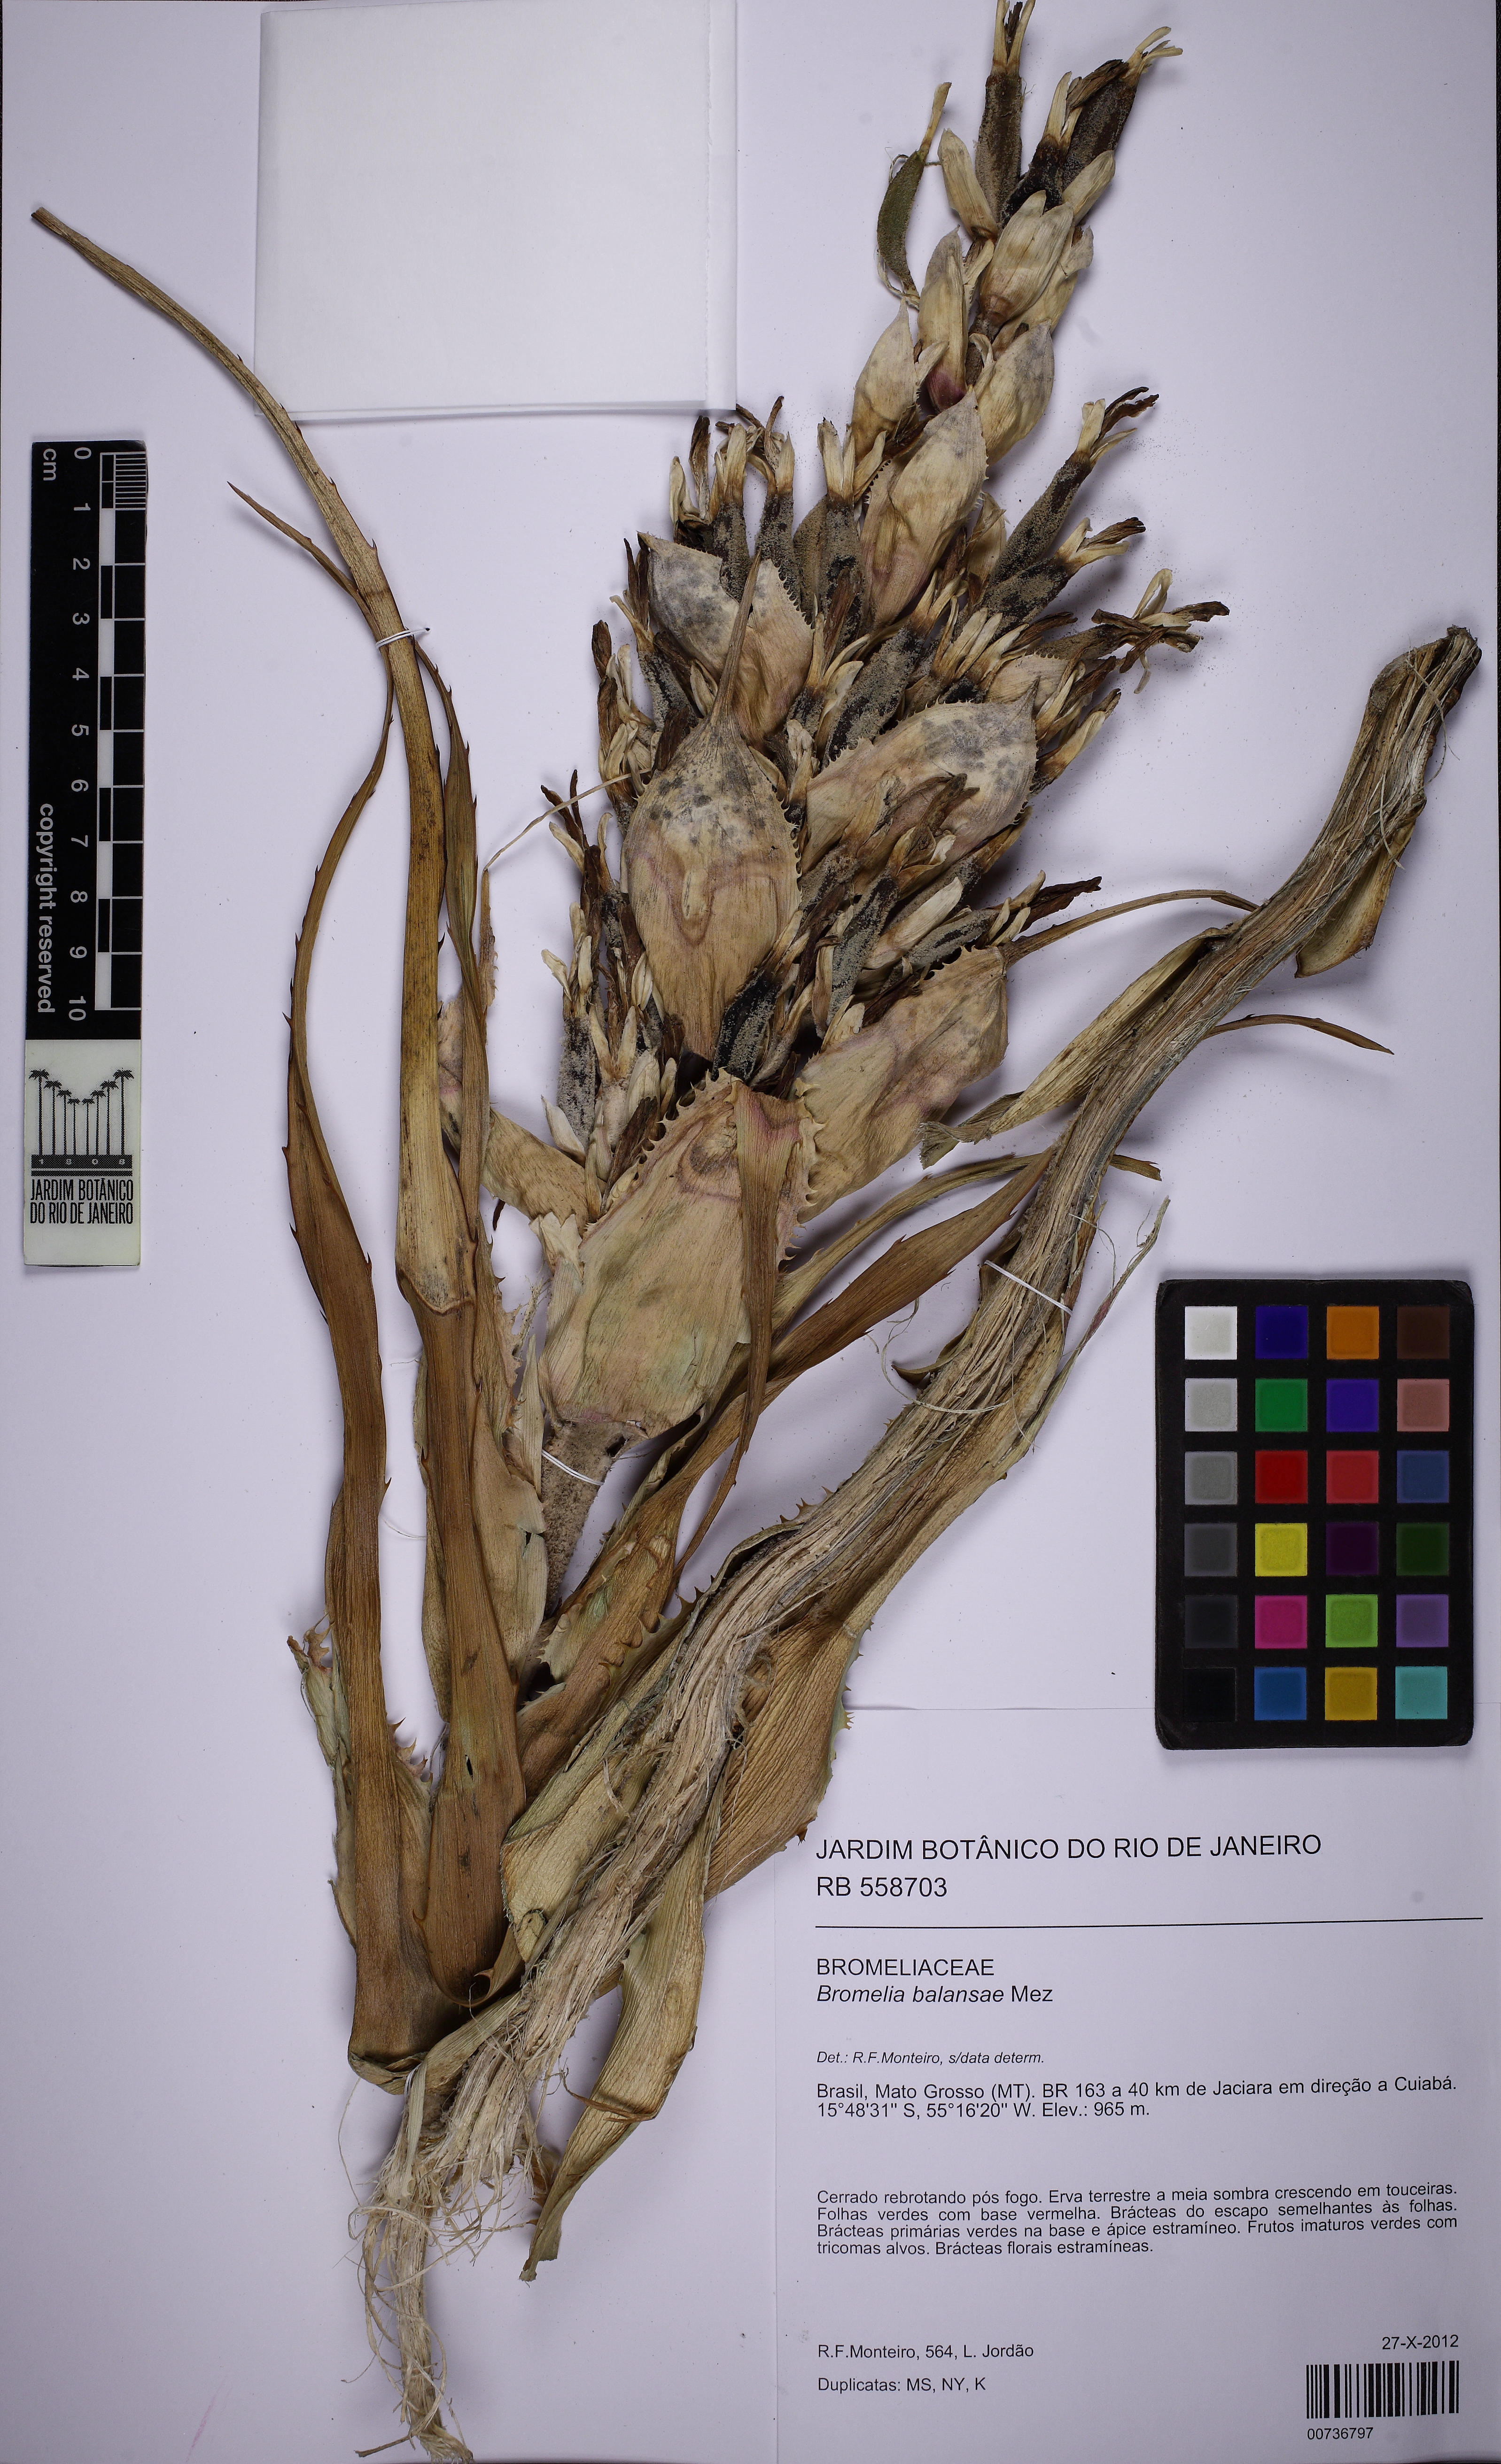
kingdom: Plantae
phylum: Tracheophyta
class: Liliopsida
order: Poales
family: Bromeliaceae
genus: Bromelia
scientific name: Bromelia balansae
